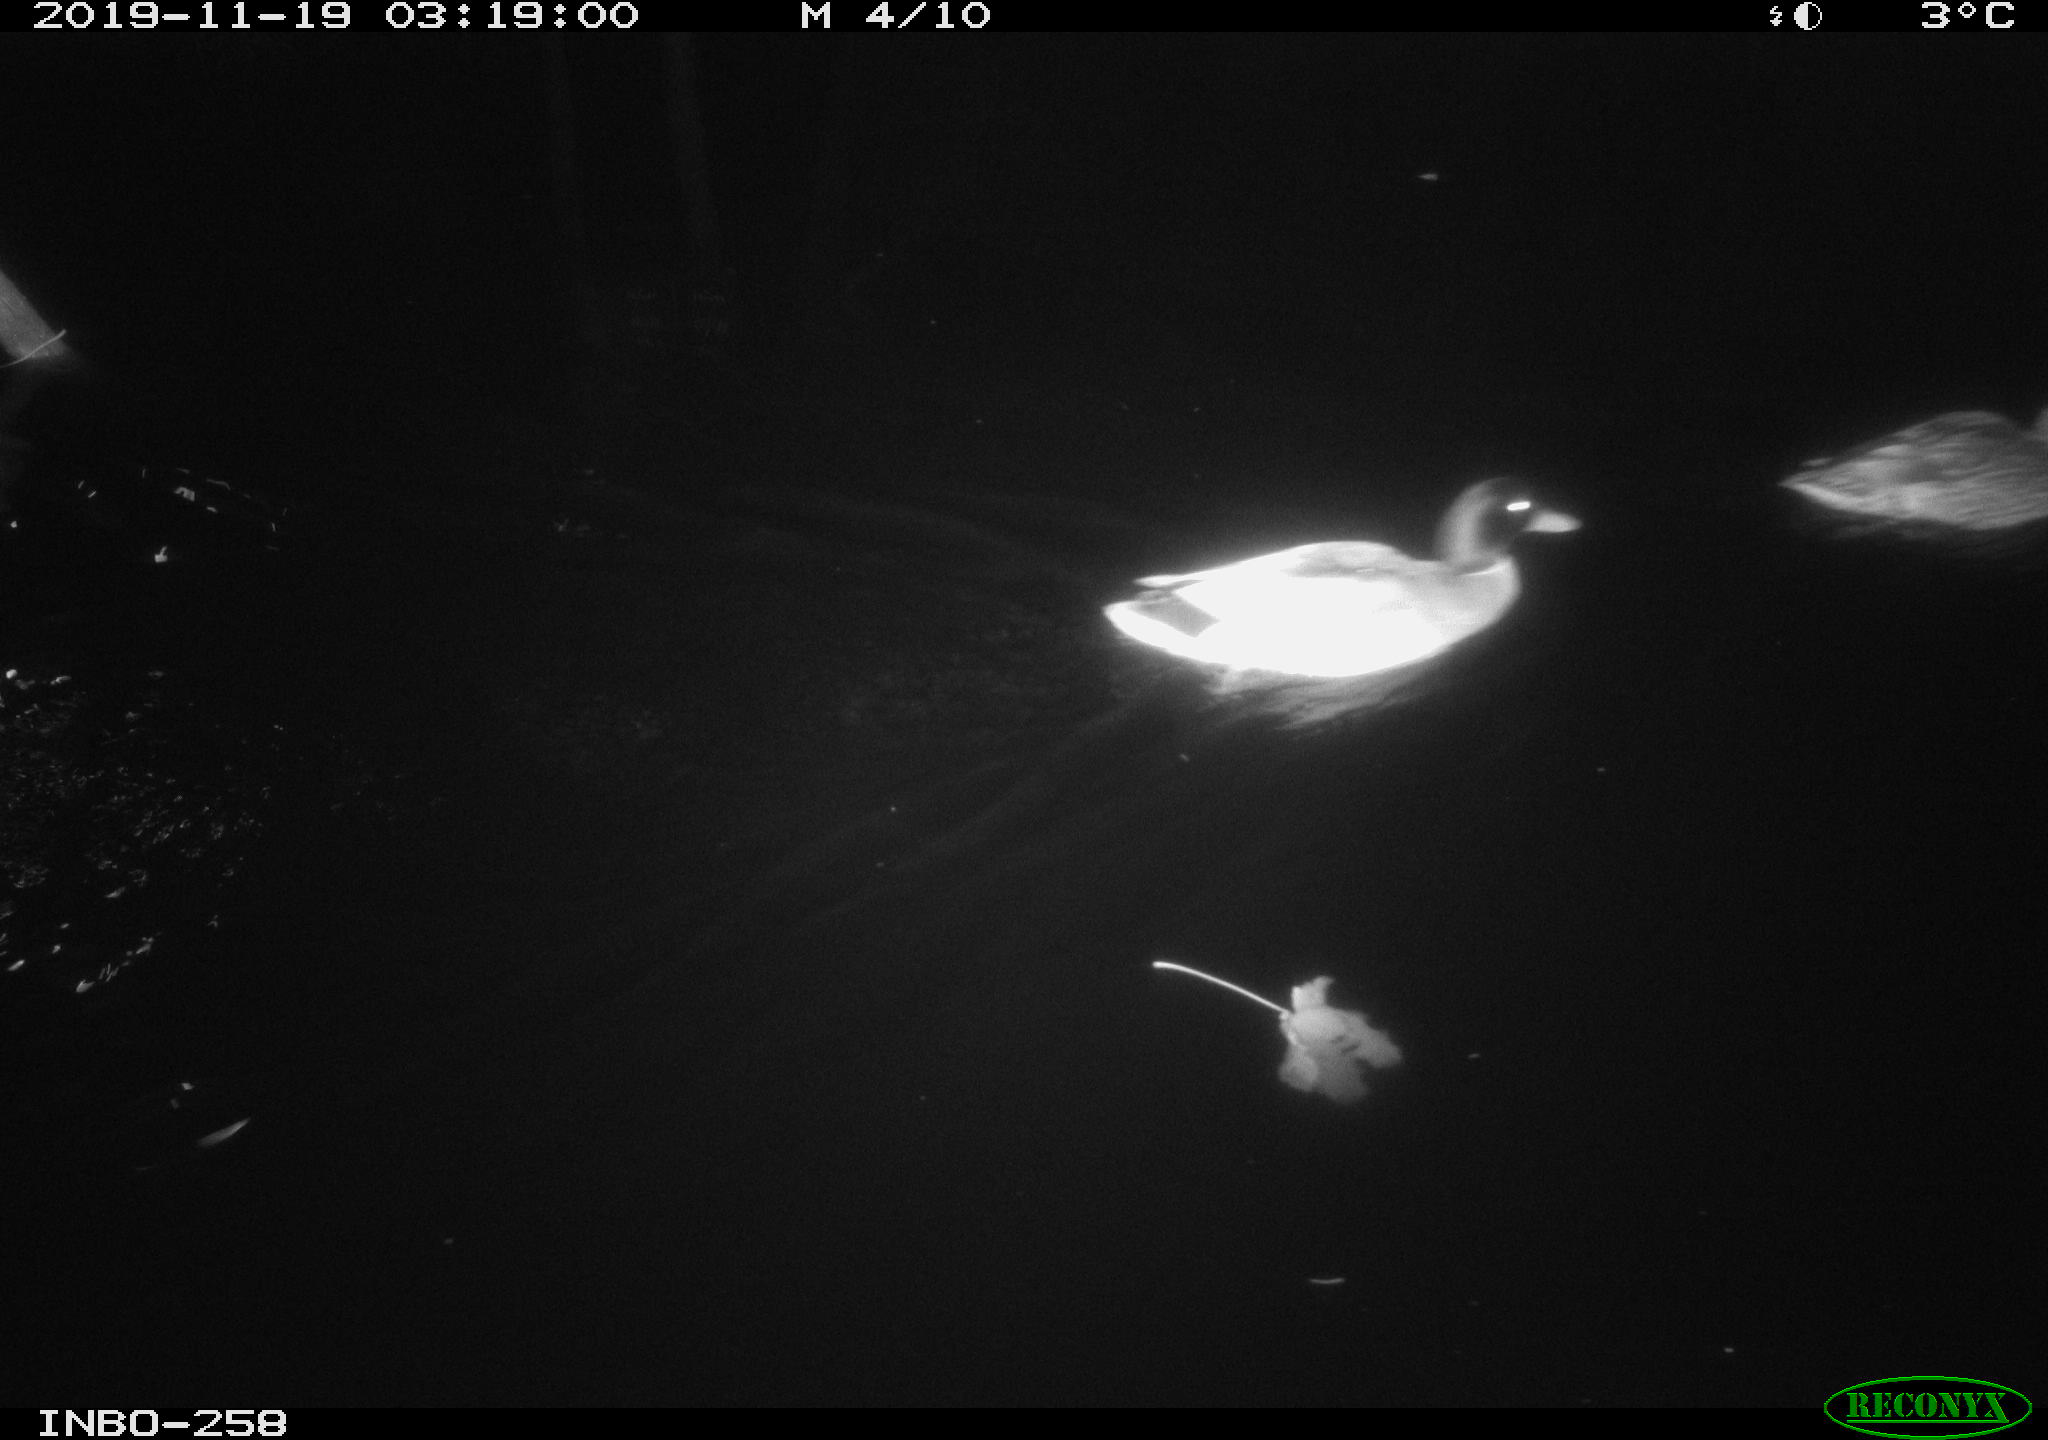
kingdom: Animalia
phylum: Chordata
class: Aves
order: Anseriformes
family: Anatidae
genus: Anas
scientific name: Anas platyrhynchos
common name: Mallard
